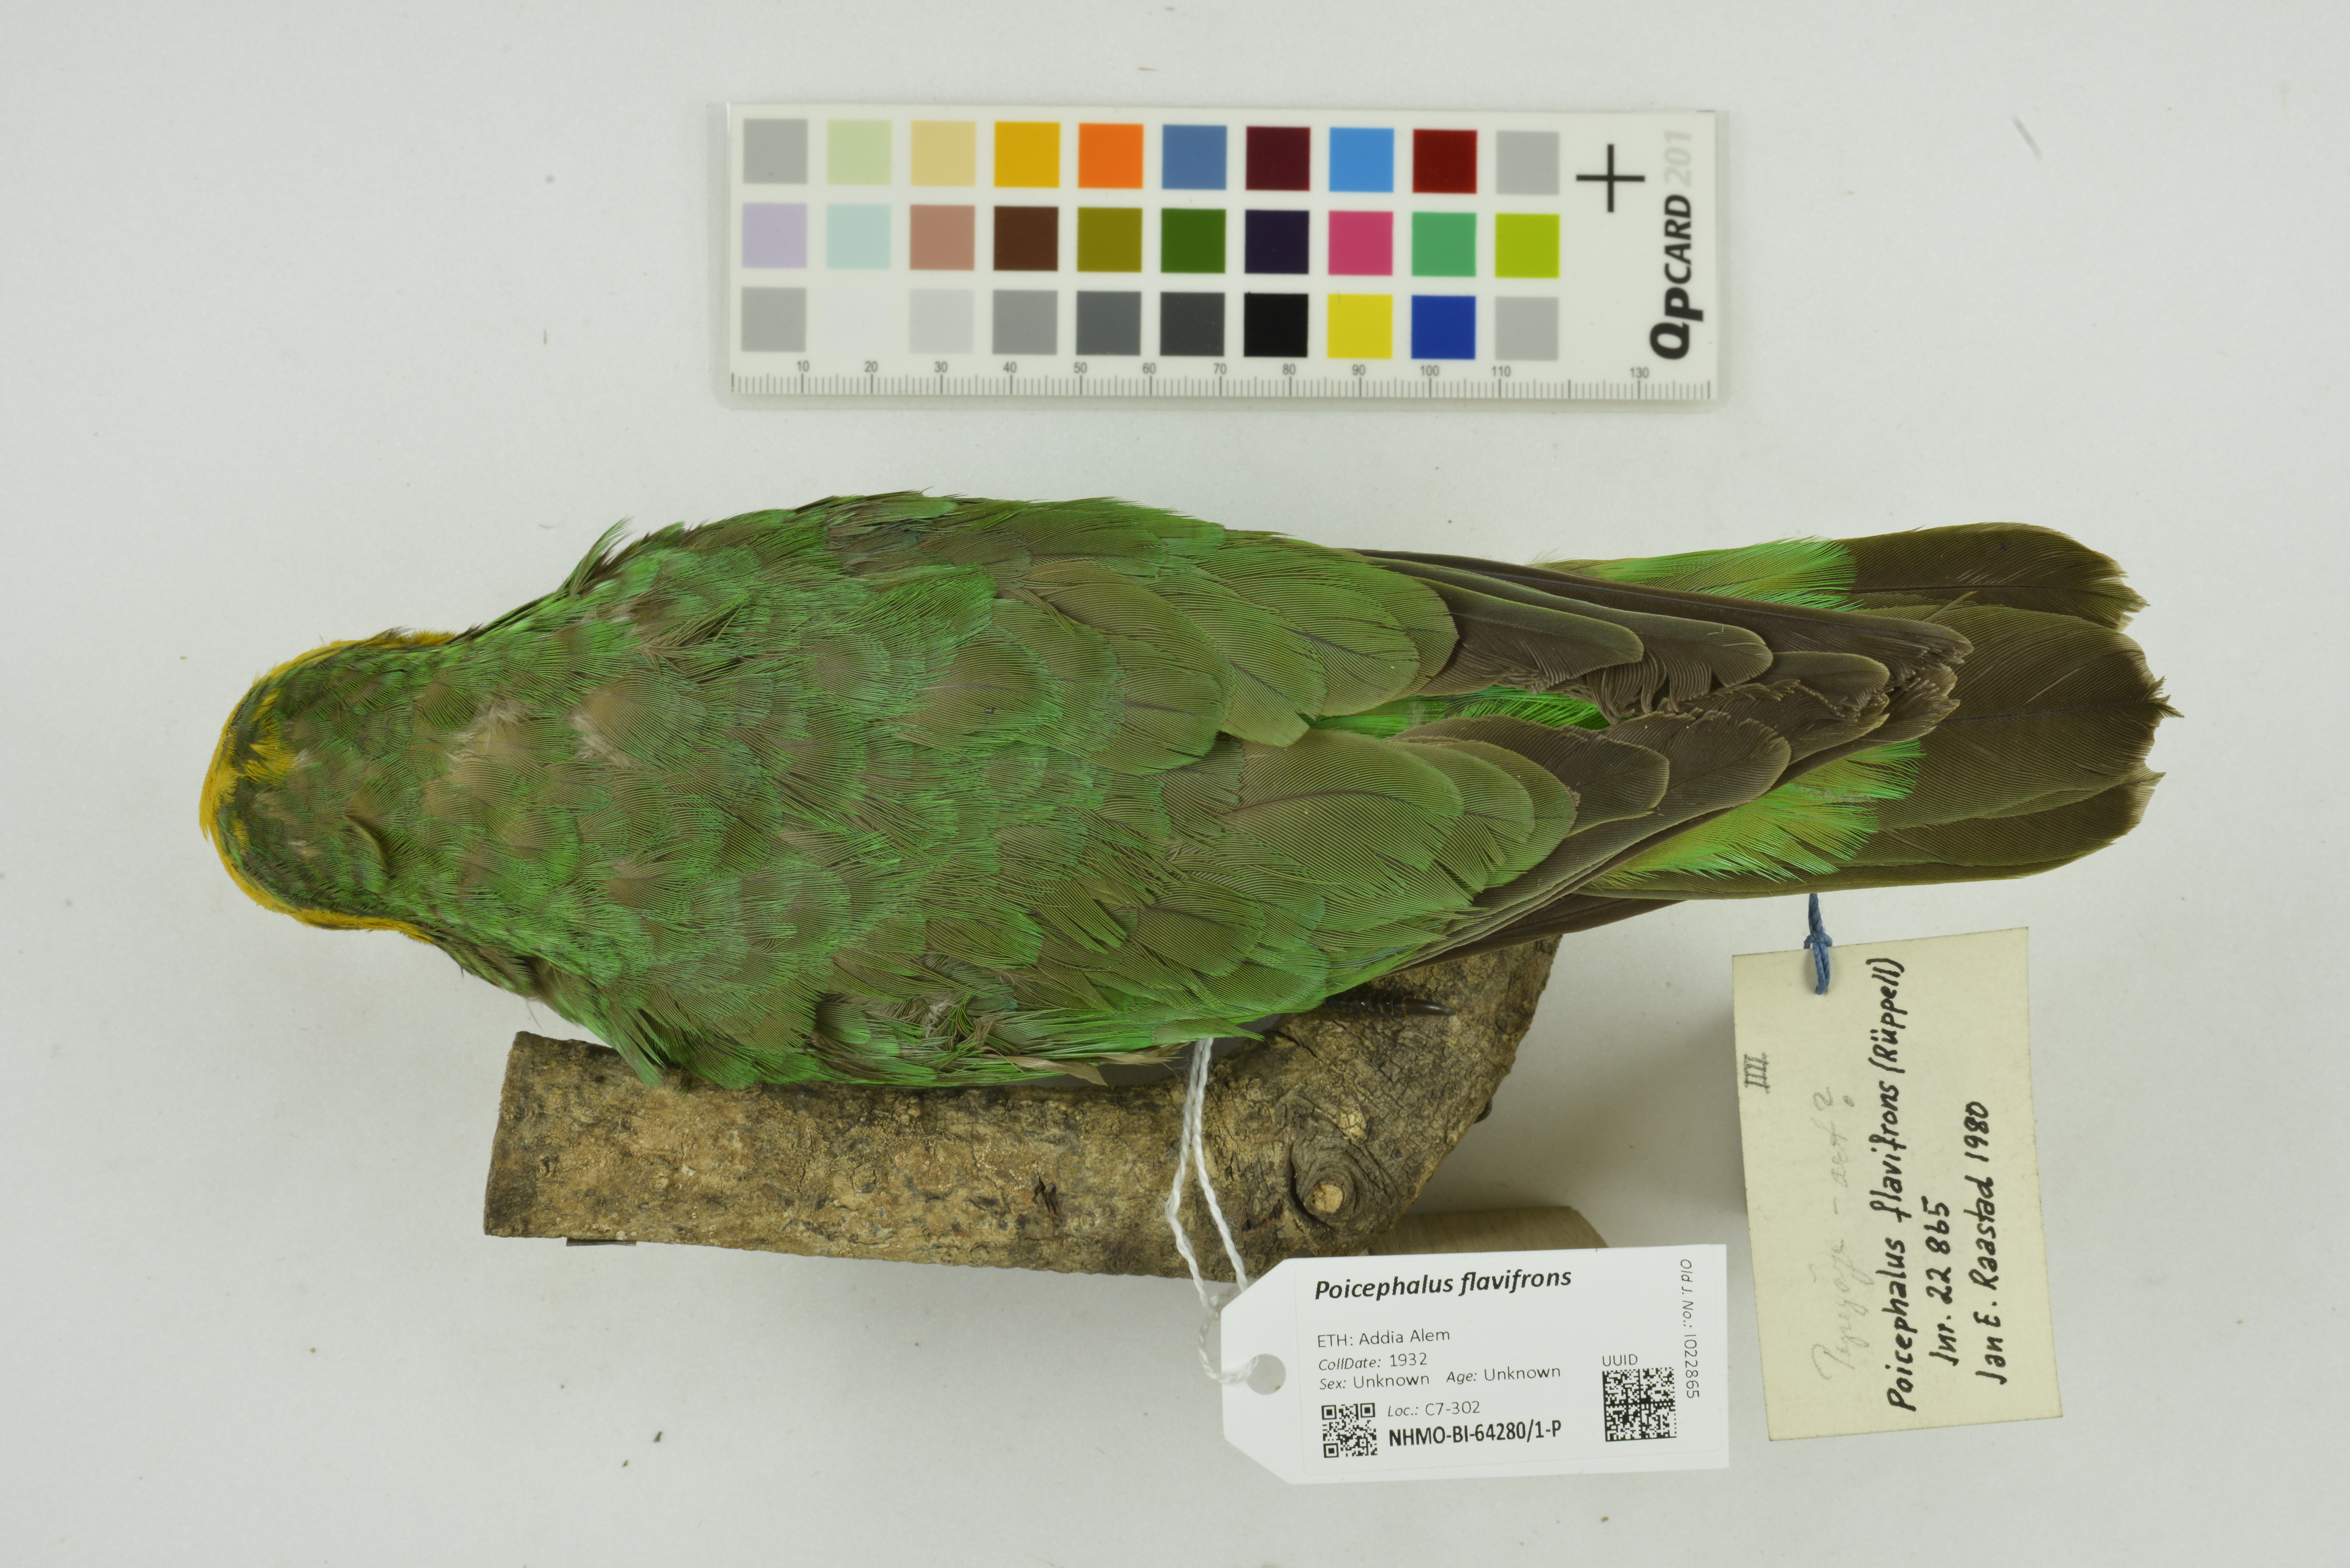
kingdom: Animalia
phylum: Chordata
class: Aves
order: Psittaciformes
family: Psittacidae
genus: Poicephalus
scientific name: Poicephalus flavifrons
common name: Yellow-fronted parrot
